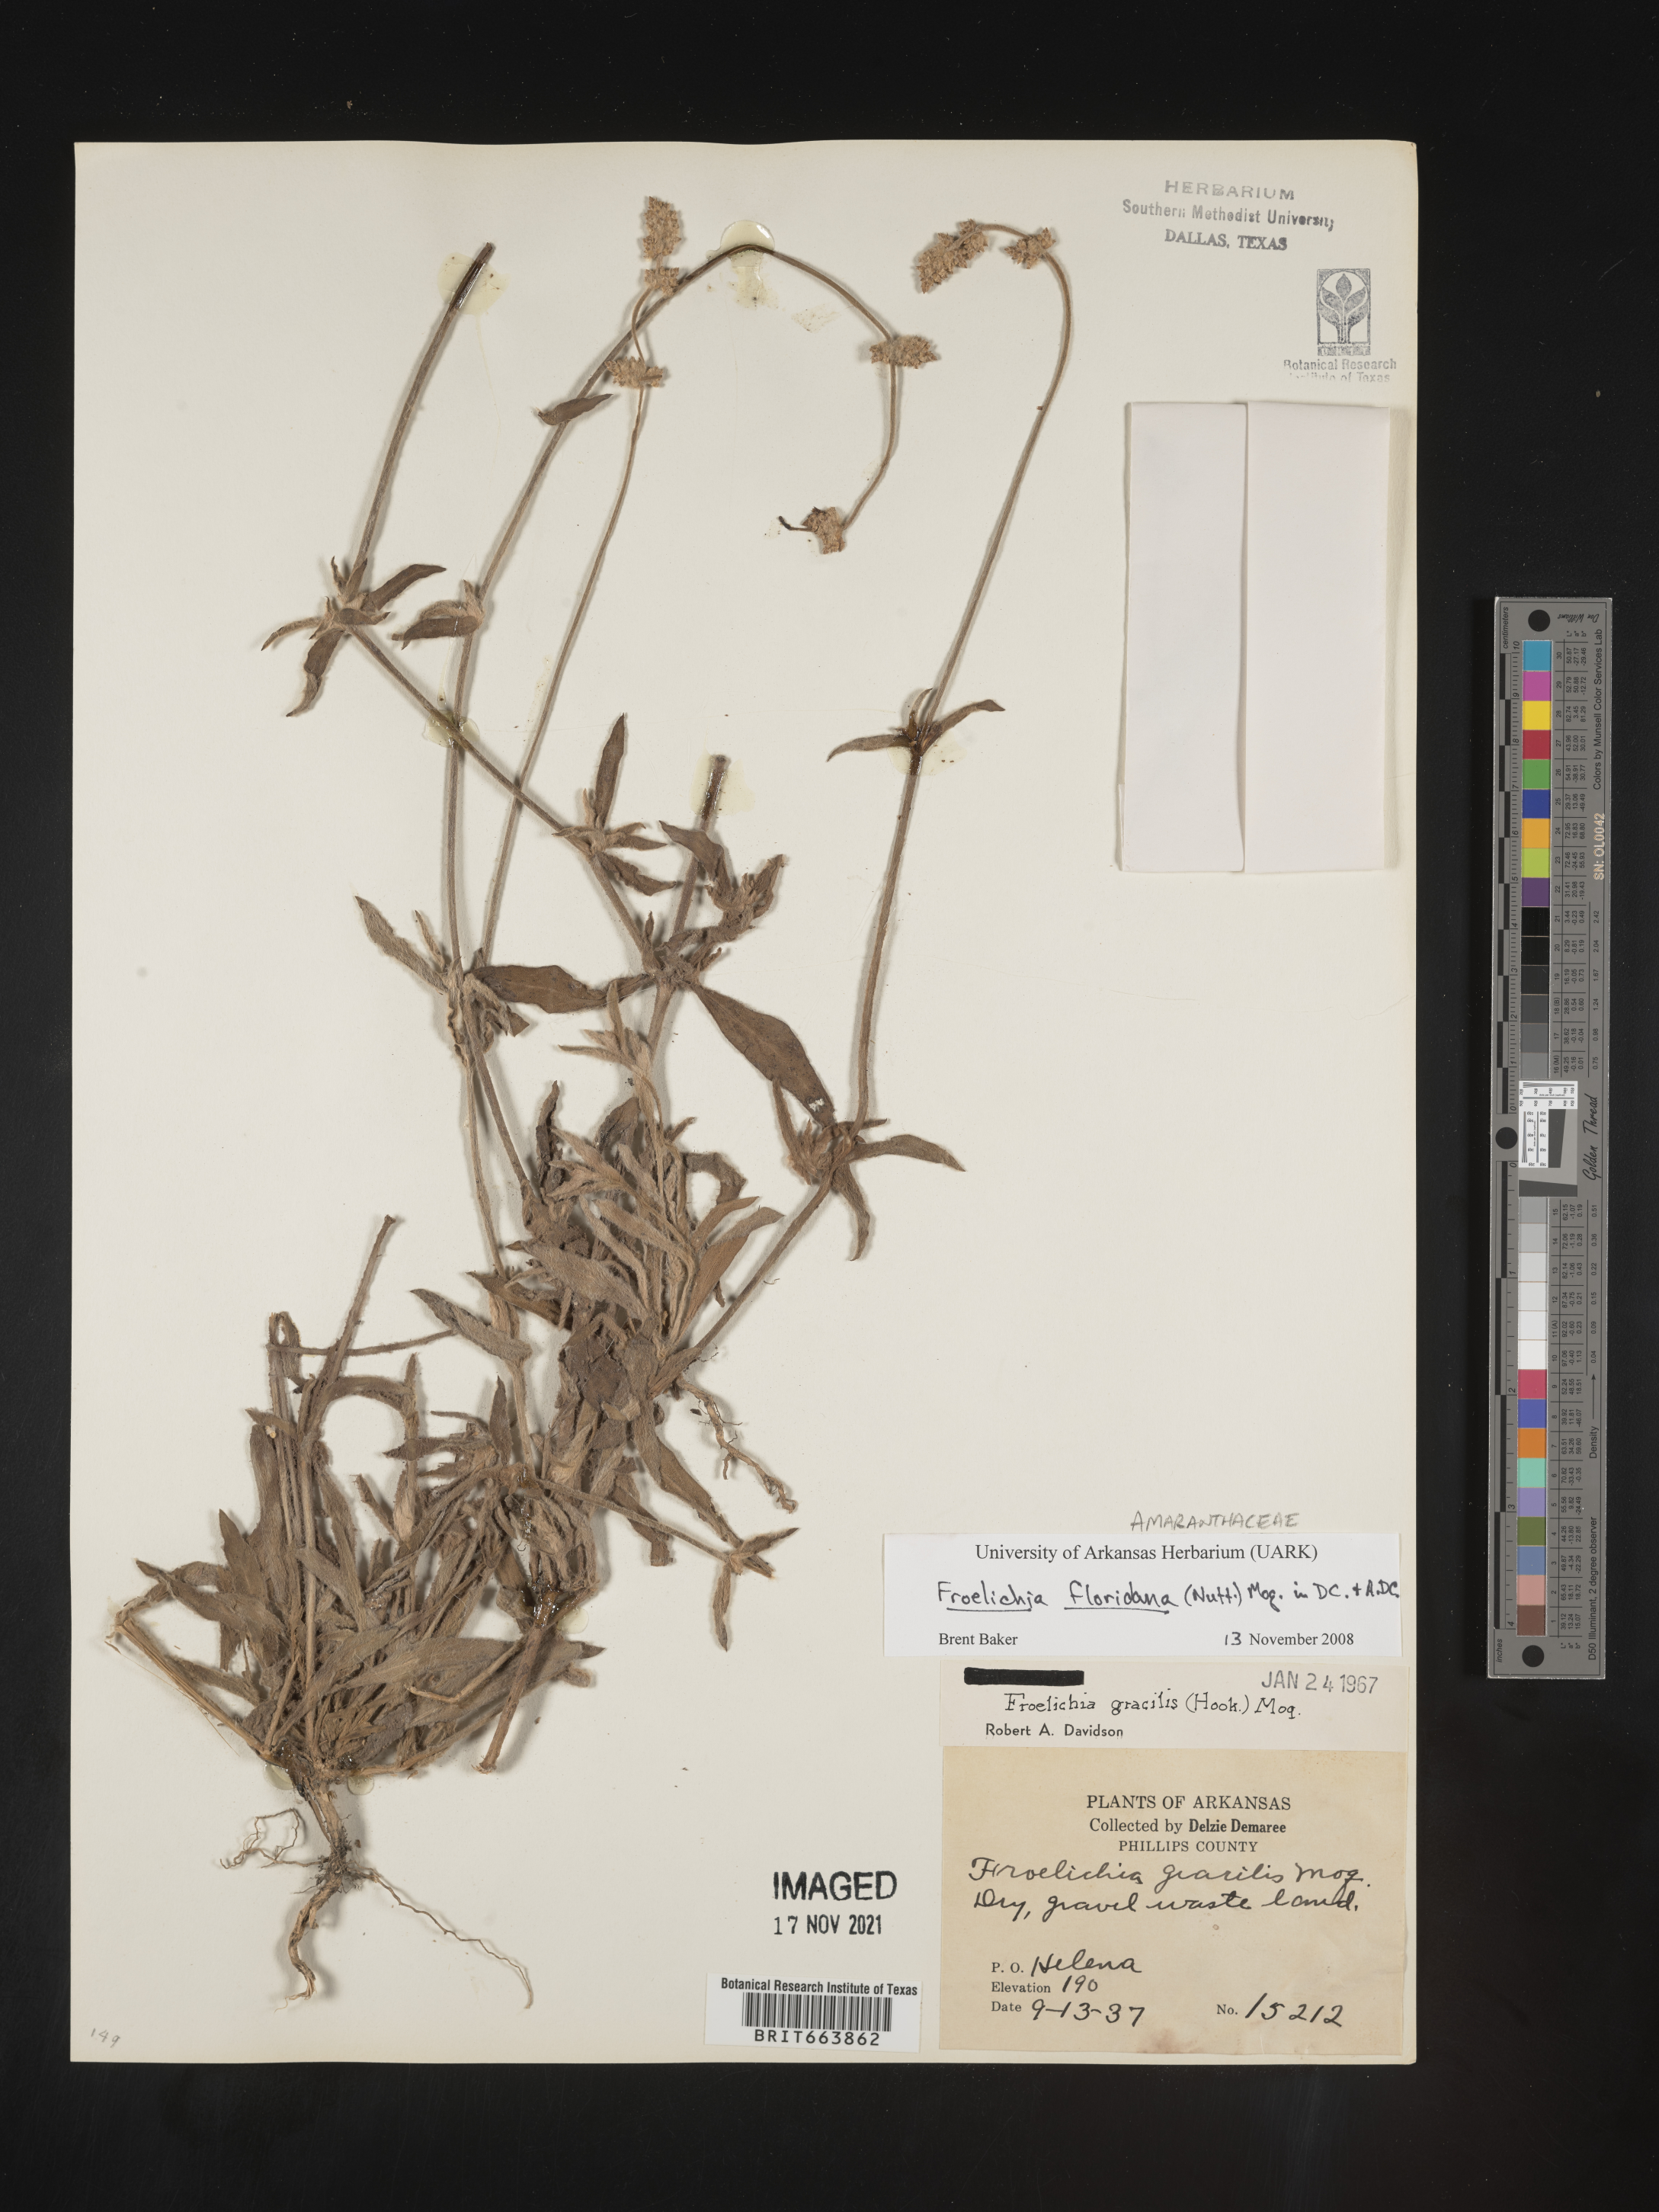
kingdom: Plantae
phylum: Tracheophyta
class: Magnoliopsida
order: Caryophyllales
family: Amaranthaceae
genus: Froelichia
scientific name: Froelichia floridana
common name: Florida snake-cotton
